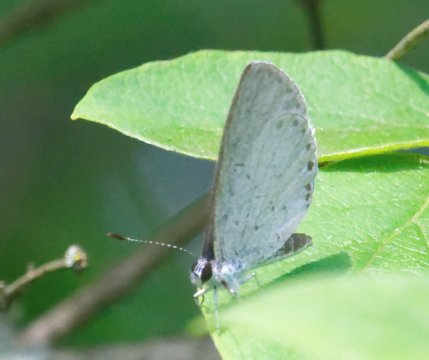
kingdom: Animalia
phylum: Arthropoda
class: Insecta
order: Lepidoptera
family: Lycaenidae
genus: Cyaniris
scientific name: Cyaniris neglecta
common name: Summer Azure
